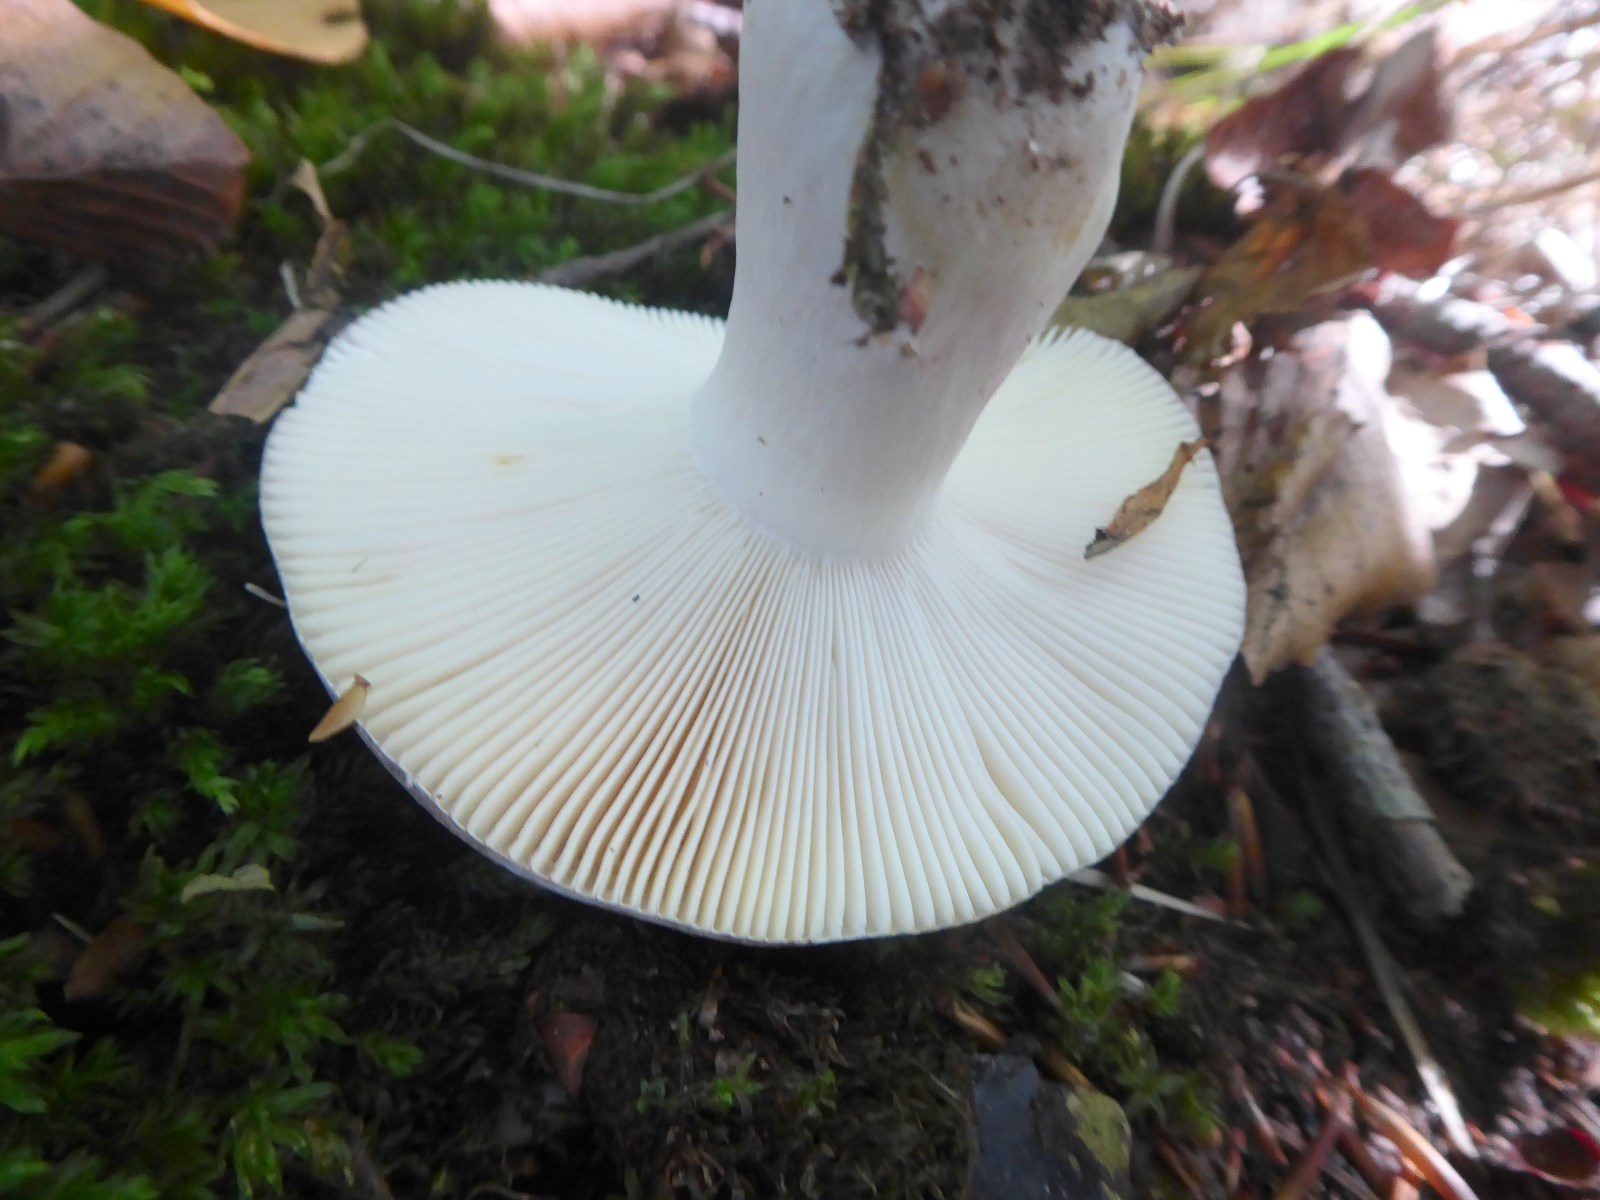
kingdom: Fungi
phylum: Basidiomycota
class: Agaricomycetes
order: Russulales
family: Russulaceae
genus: Russula
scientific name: Russula ionochlora
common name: violetgrøn skørhat
